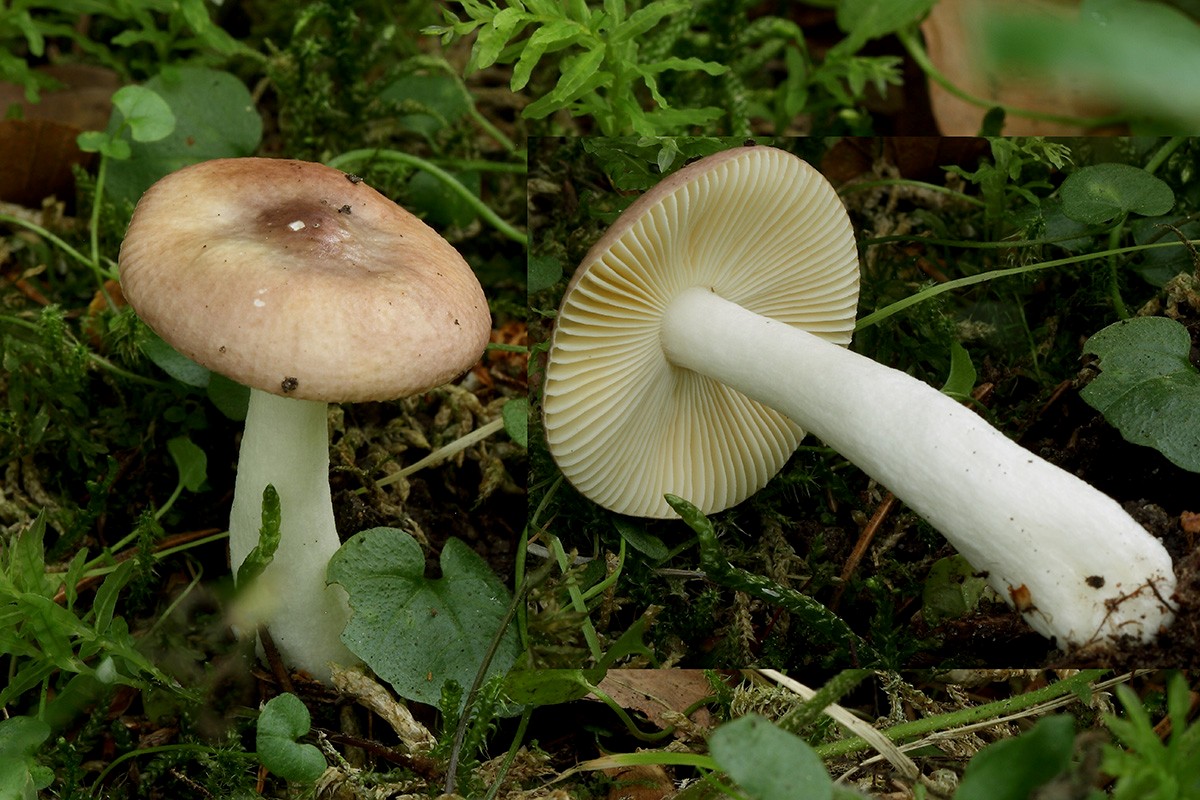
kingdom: Fungi
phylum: Basidiomycota
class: Agaricomycetes
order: Russulales
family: Russulaceae
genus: Russula
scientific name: Russula nauseosa
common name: spinkel skørhat
